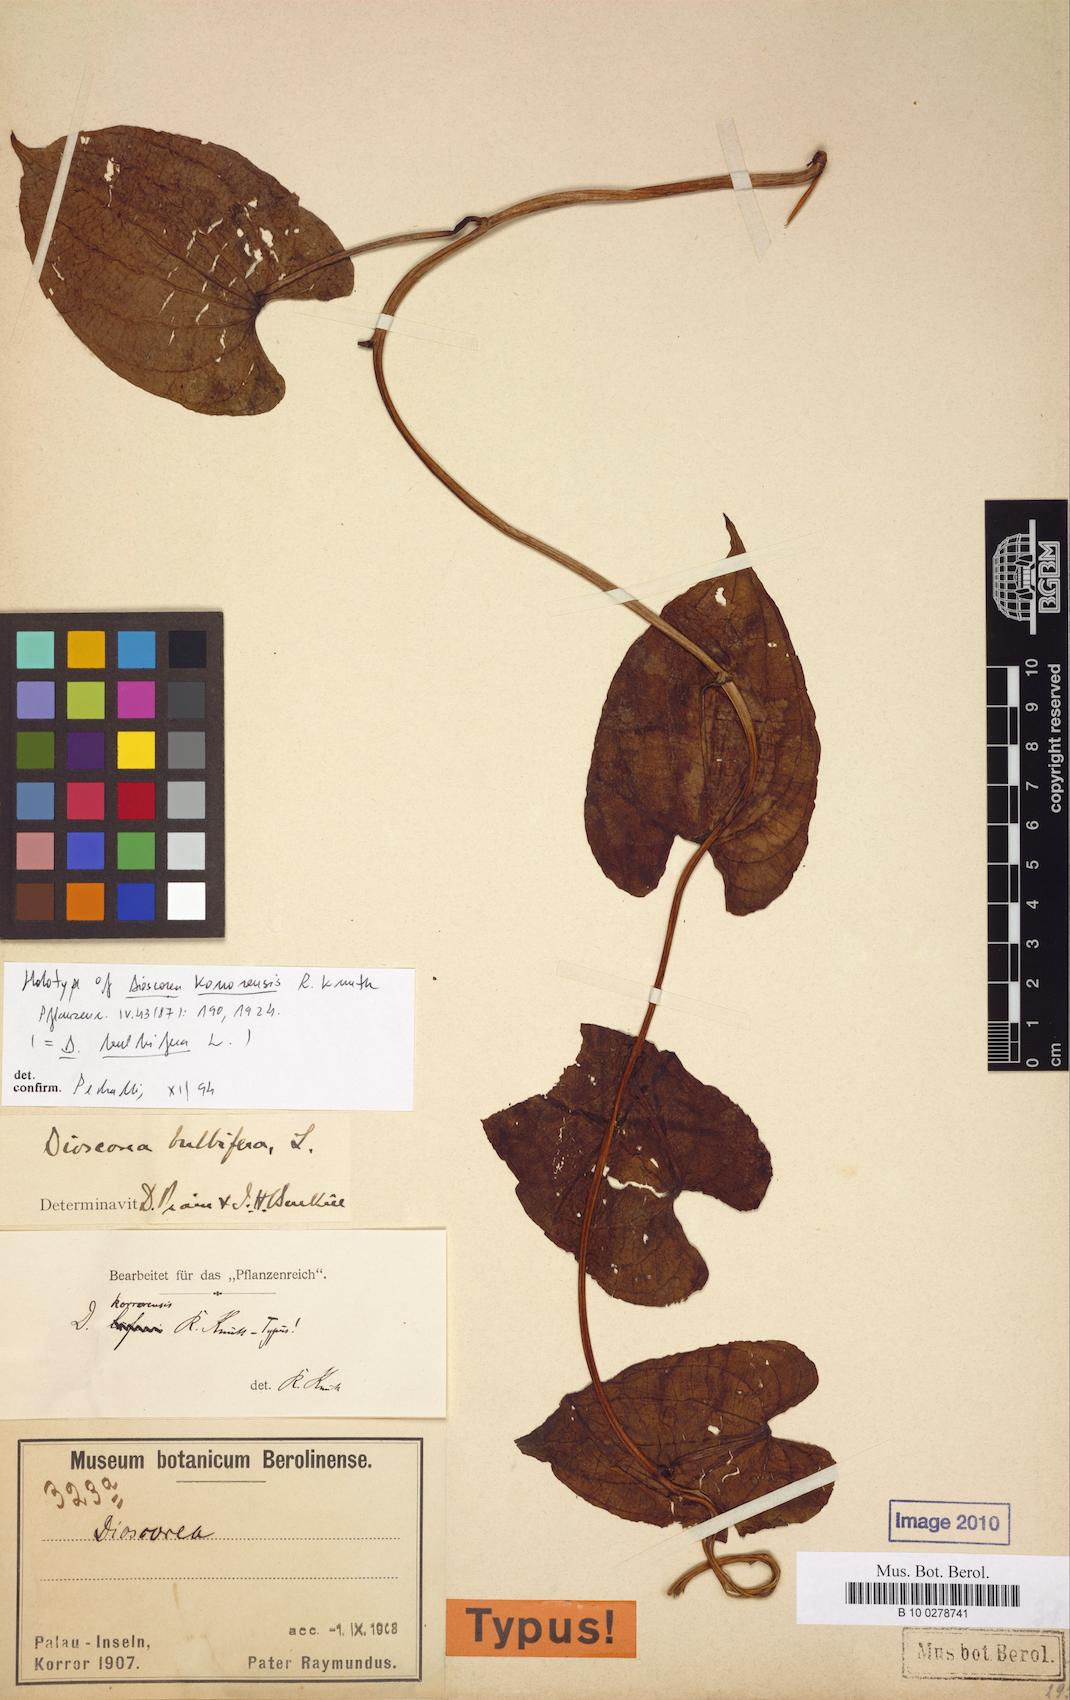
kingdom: Plantae
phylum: Tracheophyta
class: Liliopsida
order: Dioscoreales
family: Dioscoreaceae
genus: Dioscorea
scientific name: Dioscorea bulbifera
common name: Air yam
